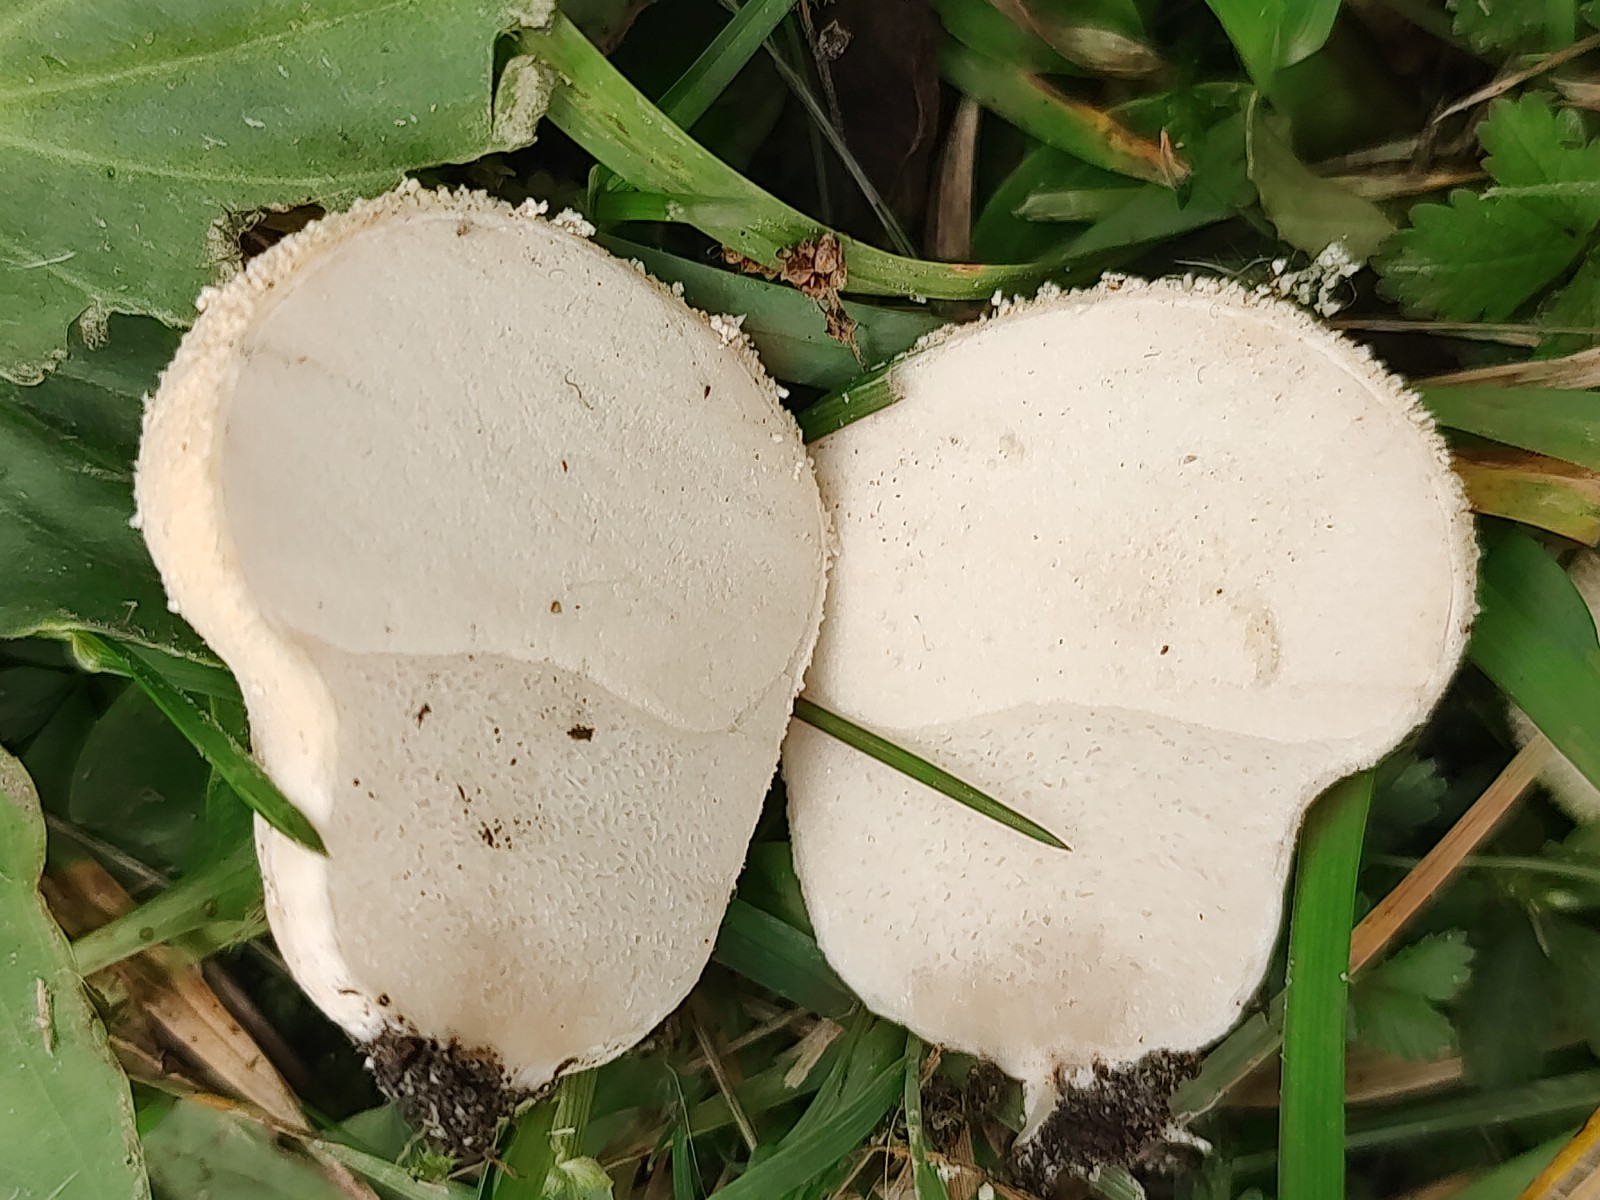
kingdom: Fungi
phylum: Basidiomycota
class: Agaricomycetes
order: Agaricales
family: Lycoperdaceae
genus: Lycoperdon
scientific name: Lycoperdon pratense
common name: flad støvbold
